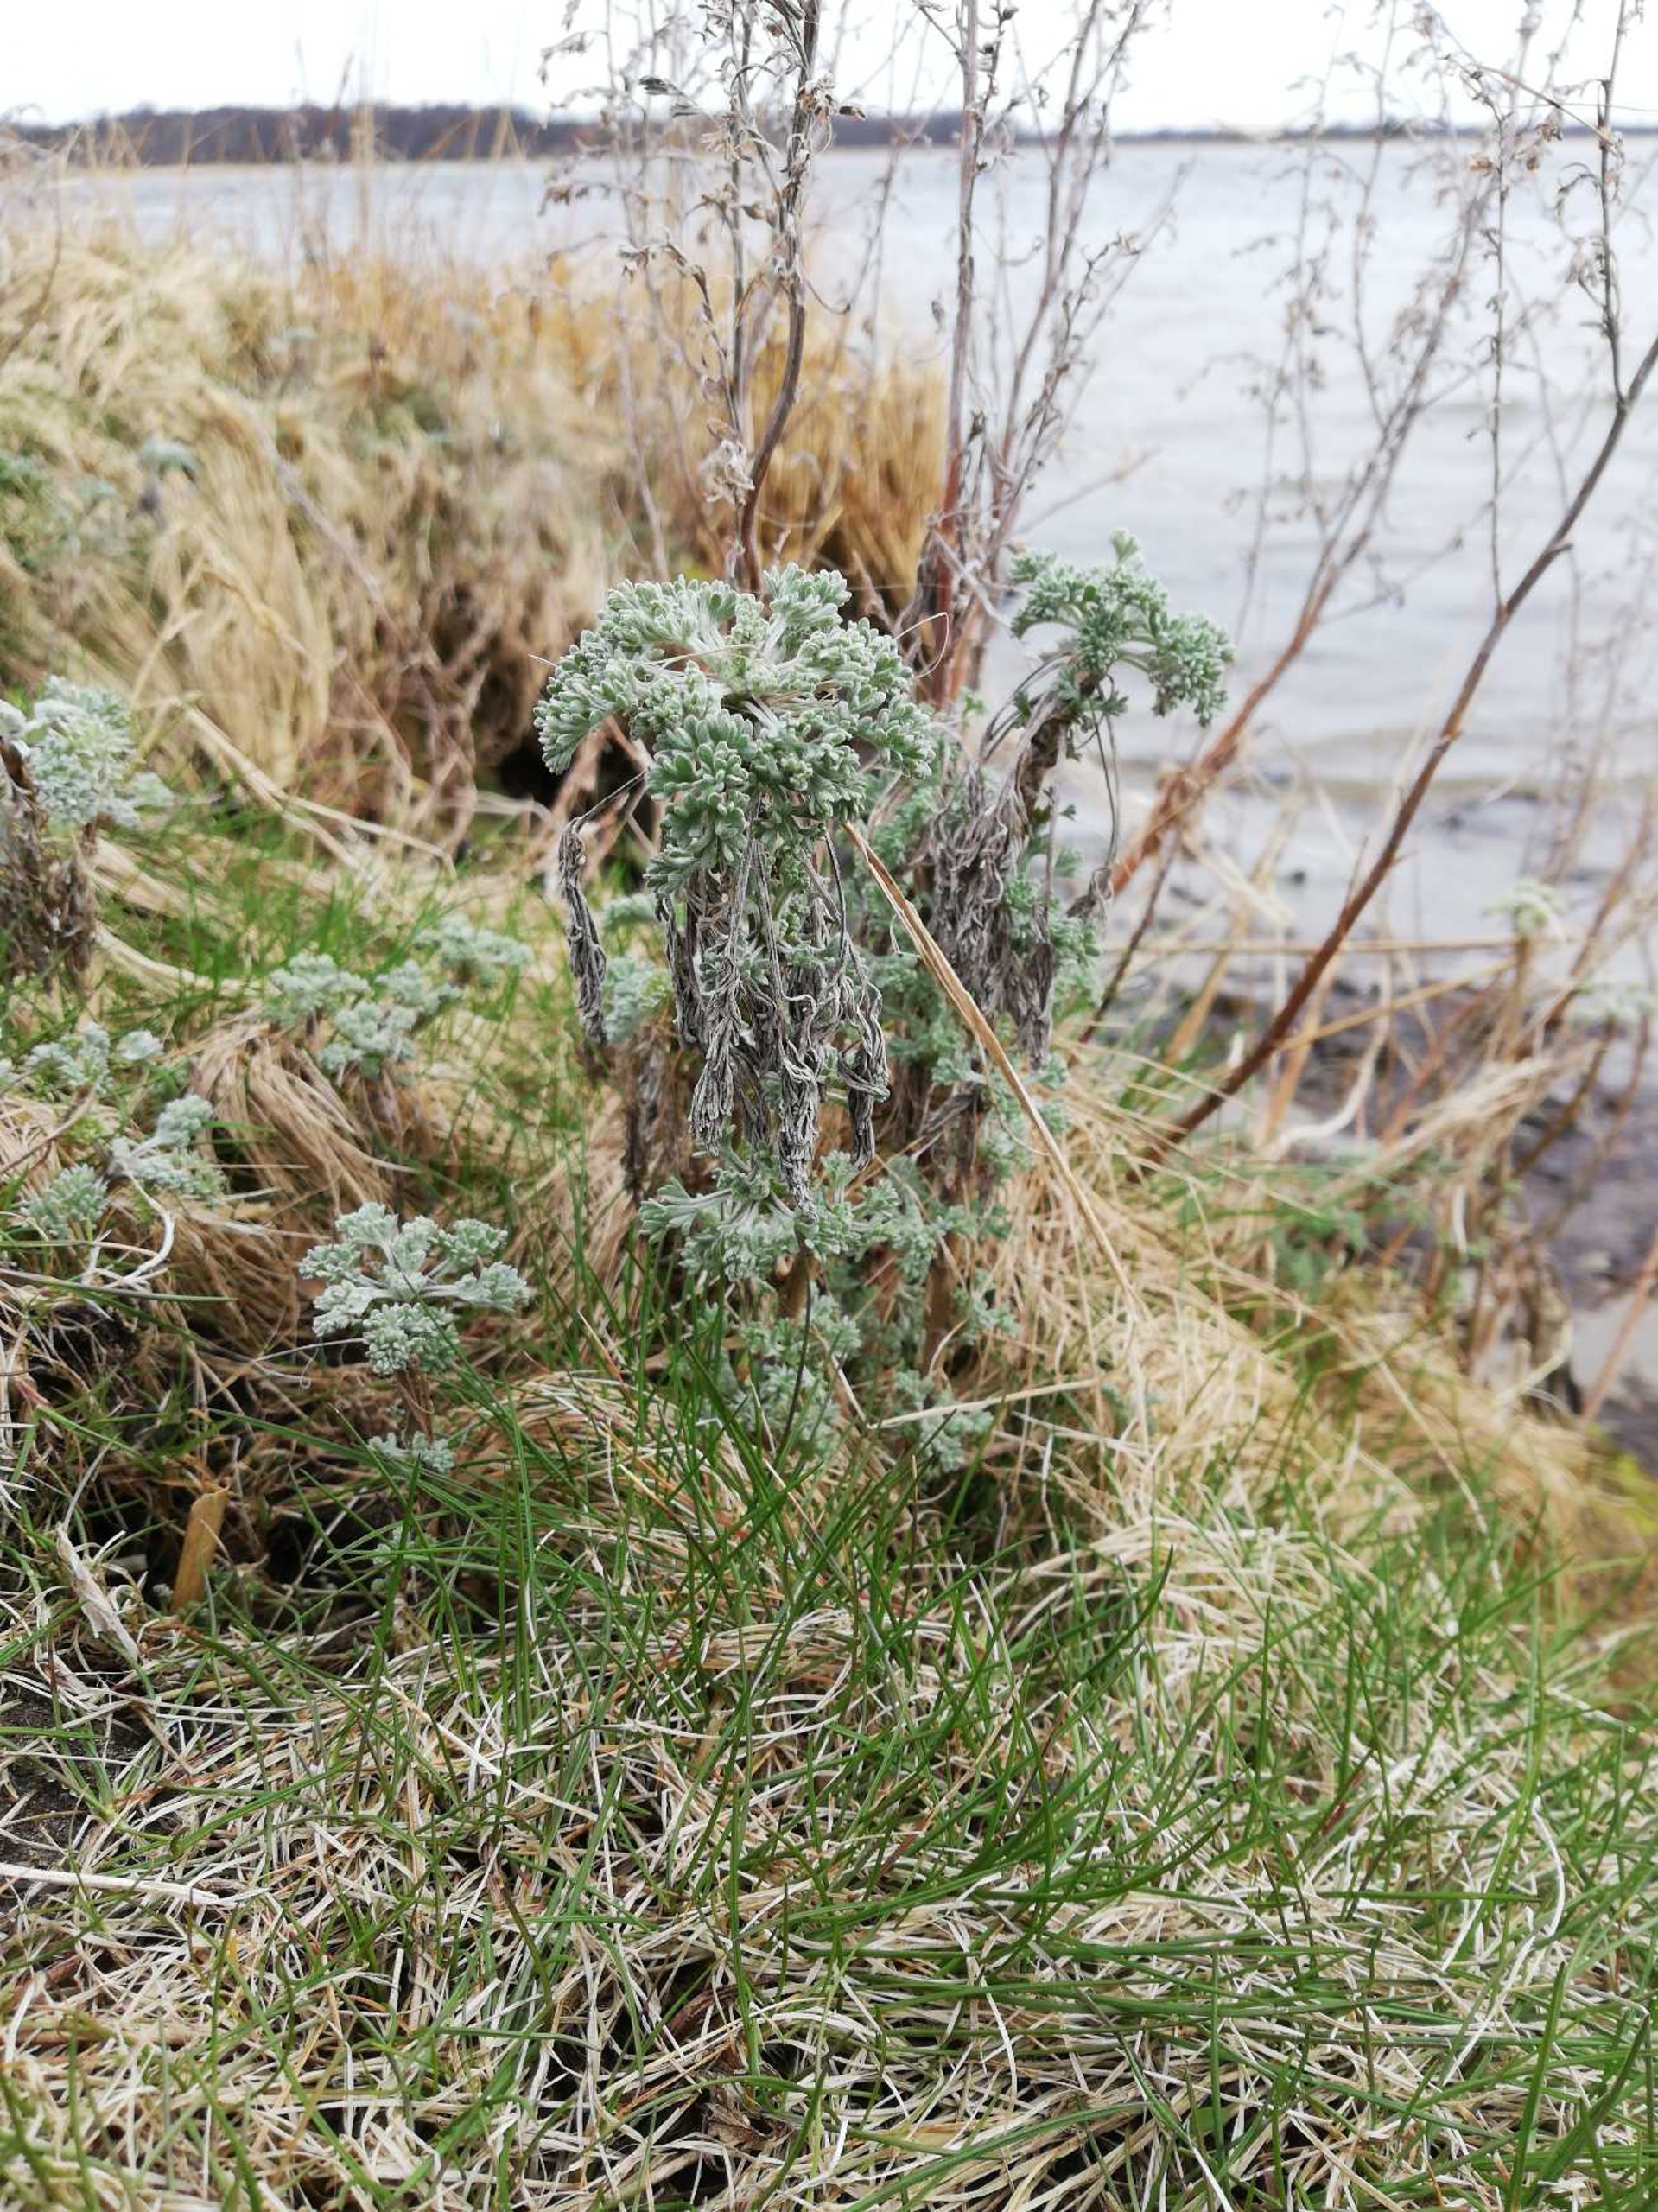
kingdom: Plantae
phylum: Tracheophyta
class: Magnoliopsida
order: Asterales
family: Asteraceae
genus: Artemisia
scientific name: Artemisia maritima
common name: Strandmalurt
